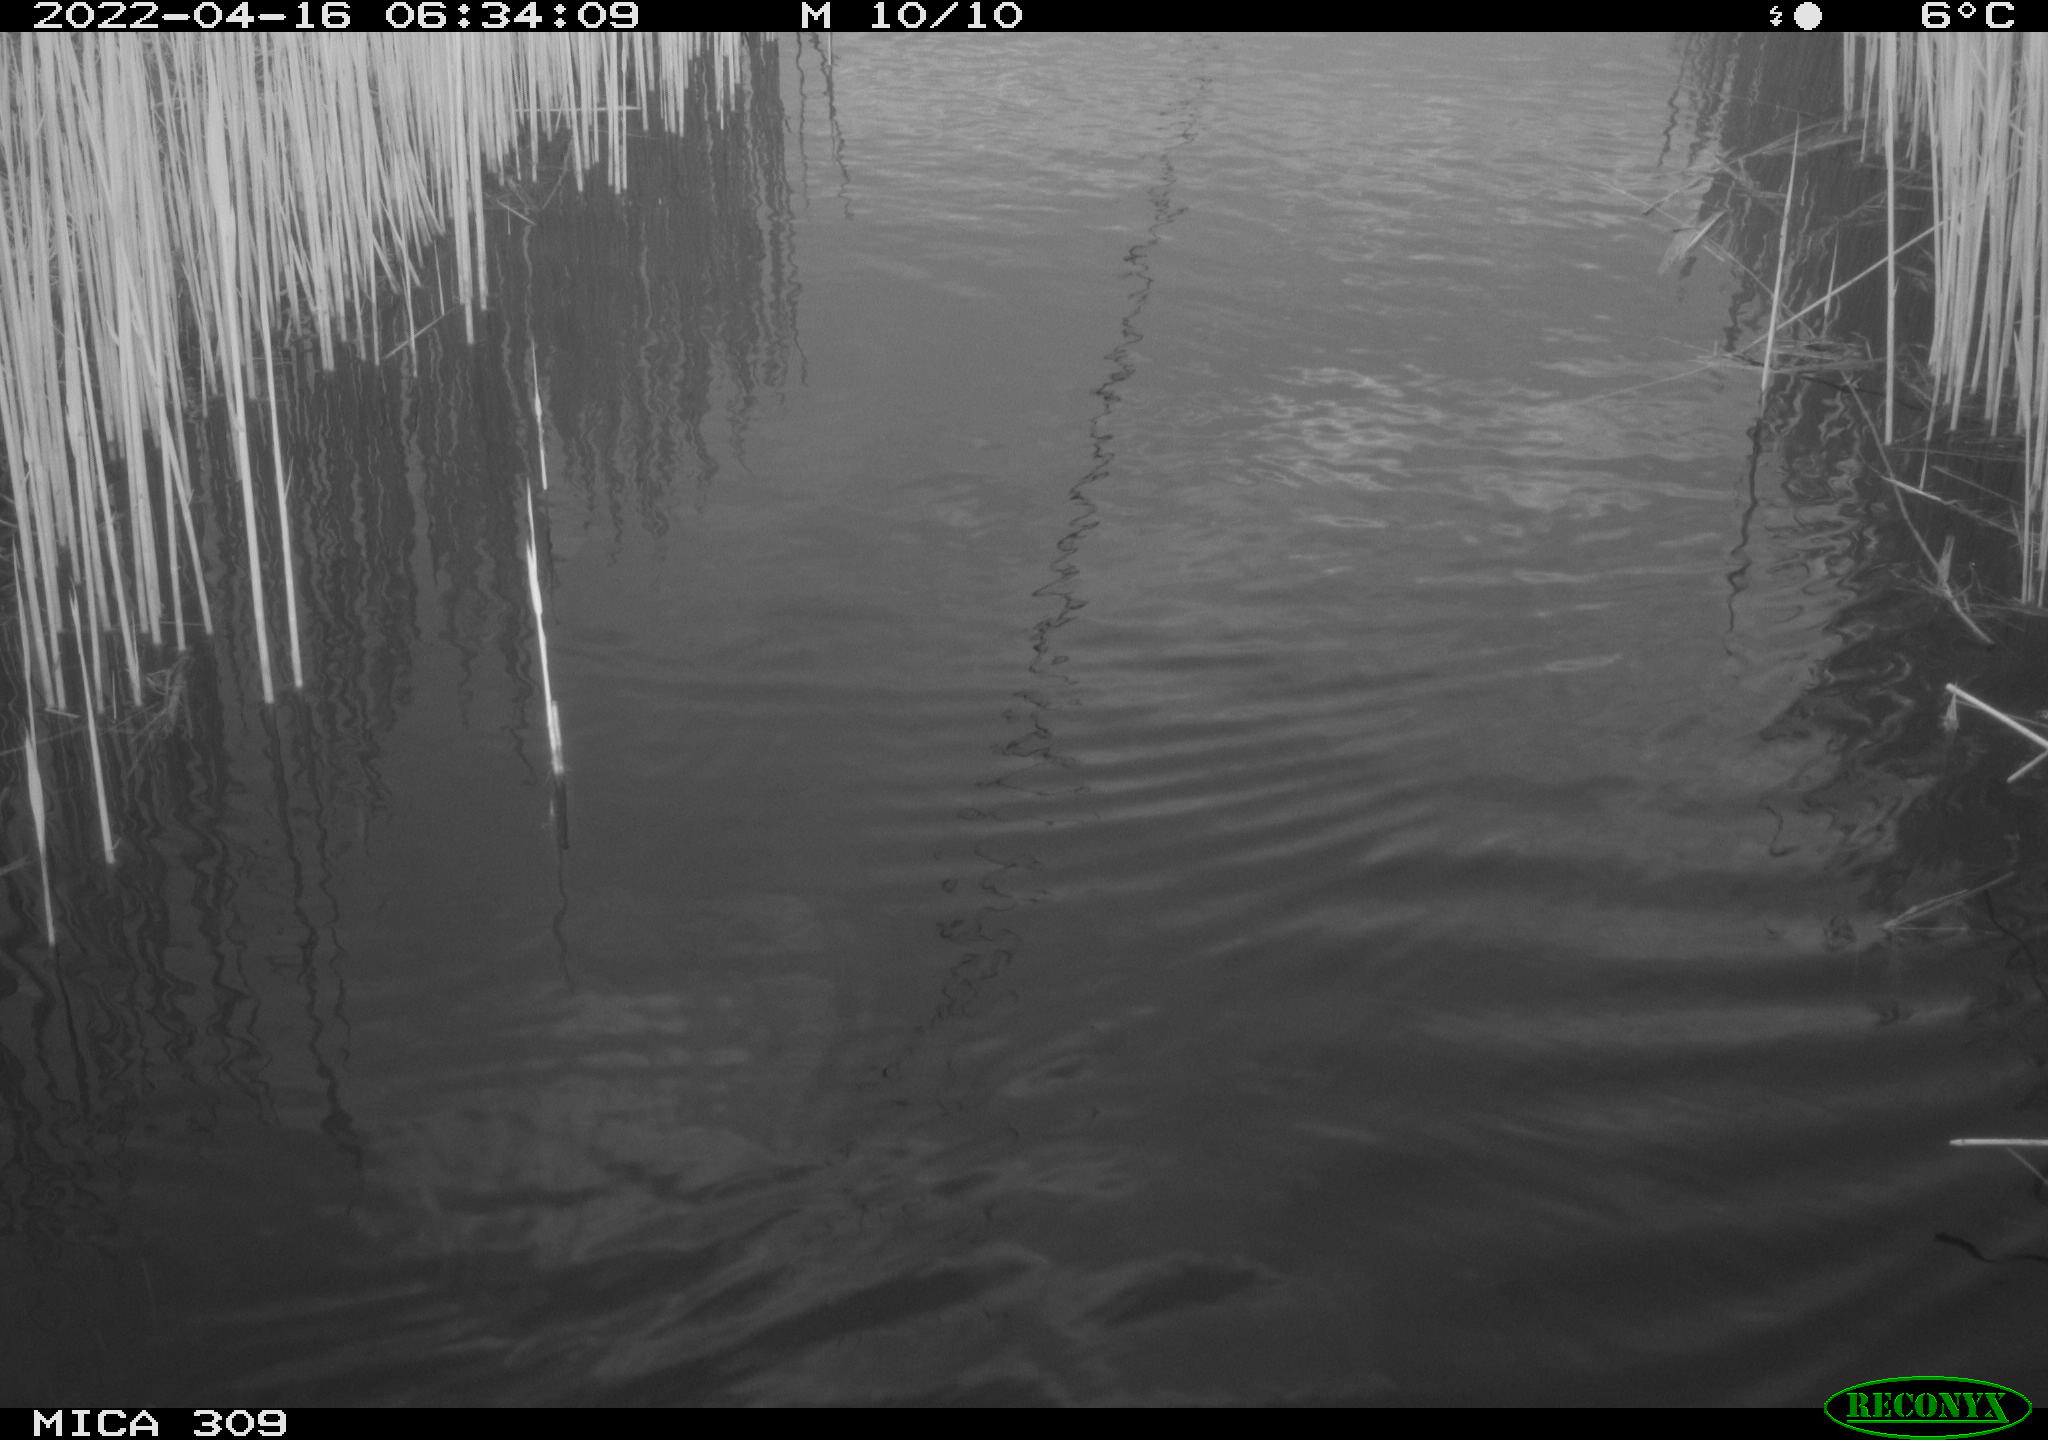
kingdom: Animalia
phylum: Chordata
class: Aves
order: Gruiformes
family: Rallidae
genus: Gallinula
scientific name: Gallinula chloropus
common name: Common moorhen
